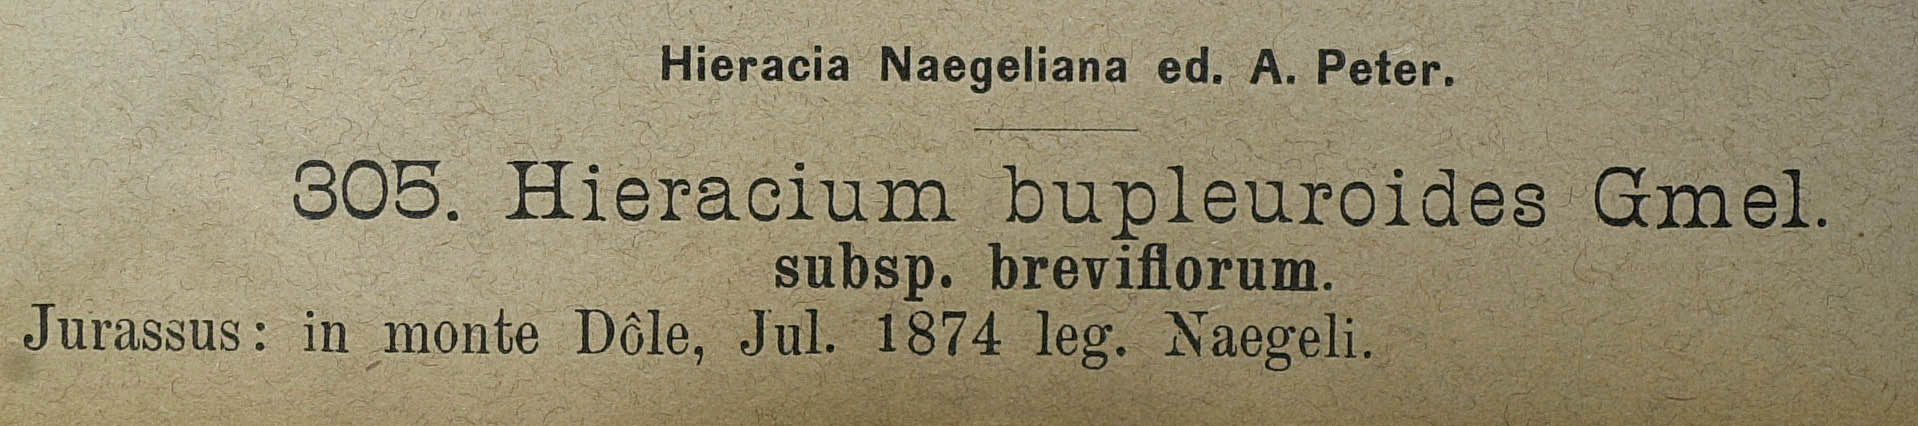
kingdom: Plantae
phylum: Tracheophyta
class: Magnoliopsida
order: Asterales
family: Asteraceae
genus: Hieracium
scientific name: Hieracium bupleuroides
